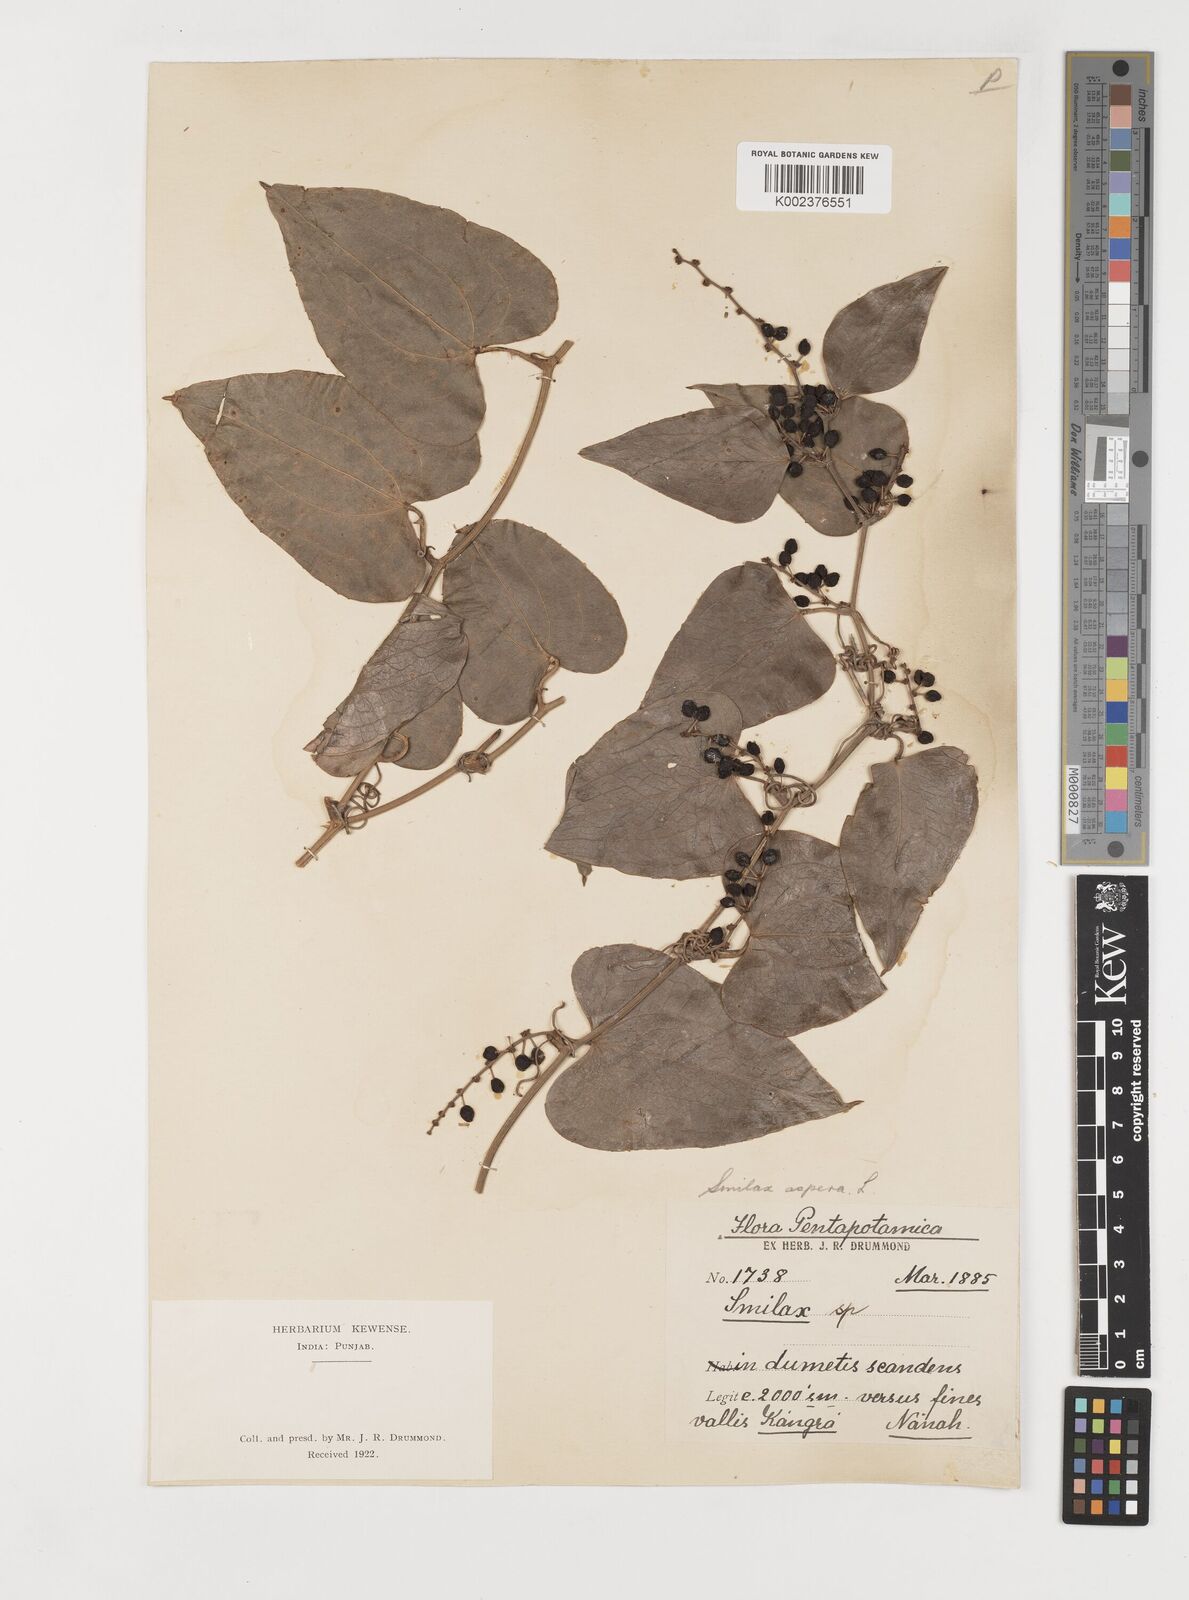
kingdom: Plantae
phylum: Tracheophyta
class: Liliopsida
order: Liliales
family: Smilacaceae
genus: Smilax
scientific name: Smilax aspera
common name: Common smilax
